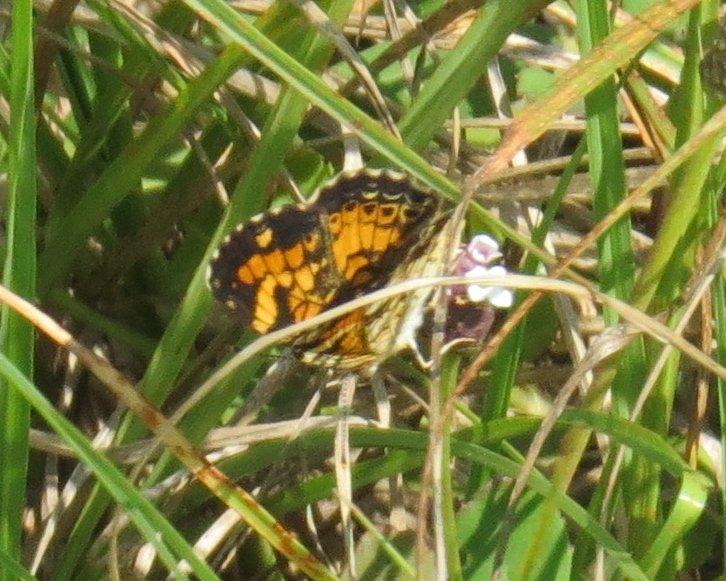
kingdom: Animalia
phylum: Arthropoda
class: Insecta
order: Lepidoptera
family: Nymphalidae
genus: Phyciodes
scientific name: Phyciodes phaon
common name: Phaon Crescent
